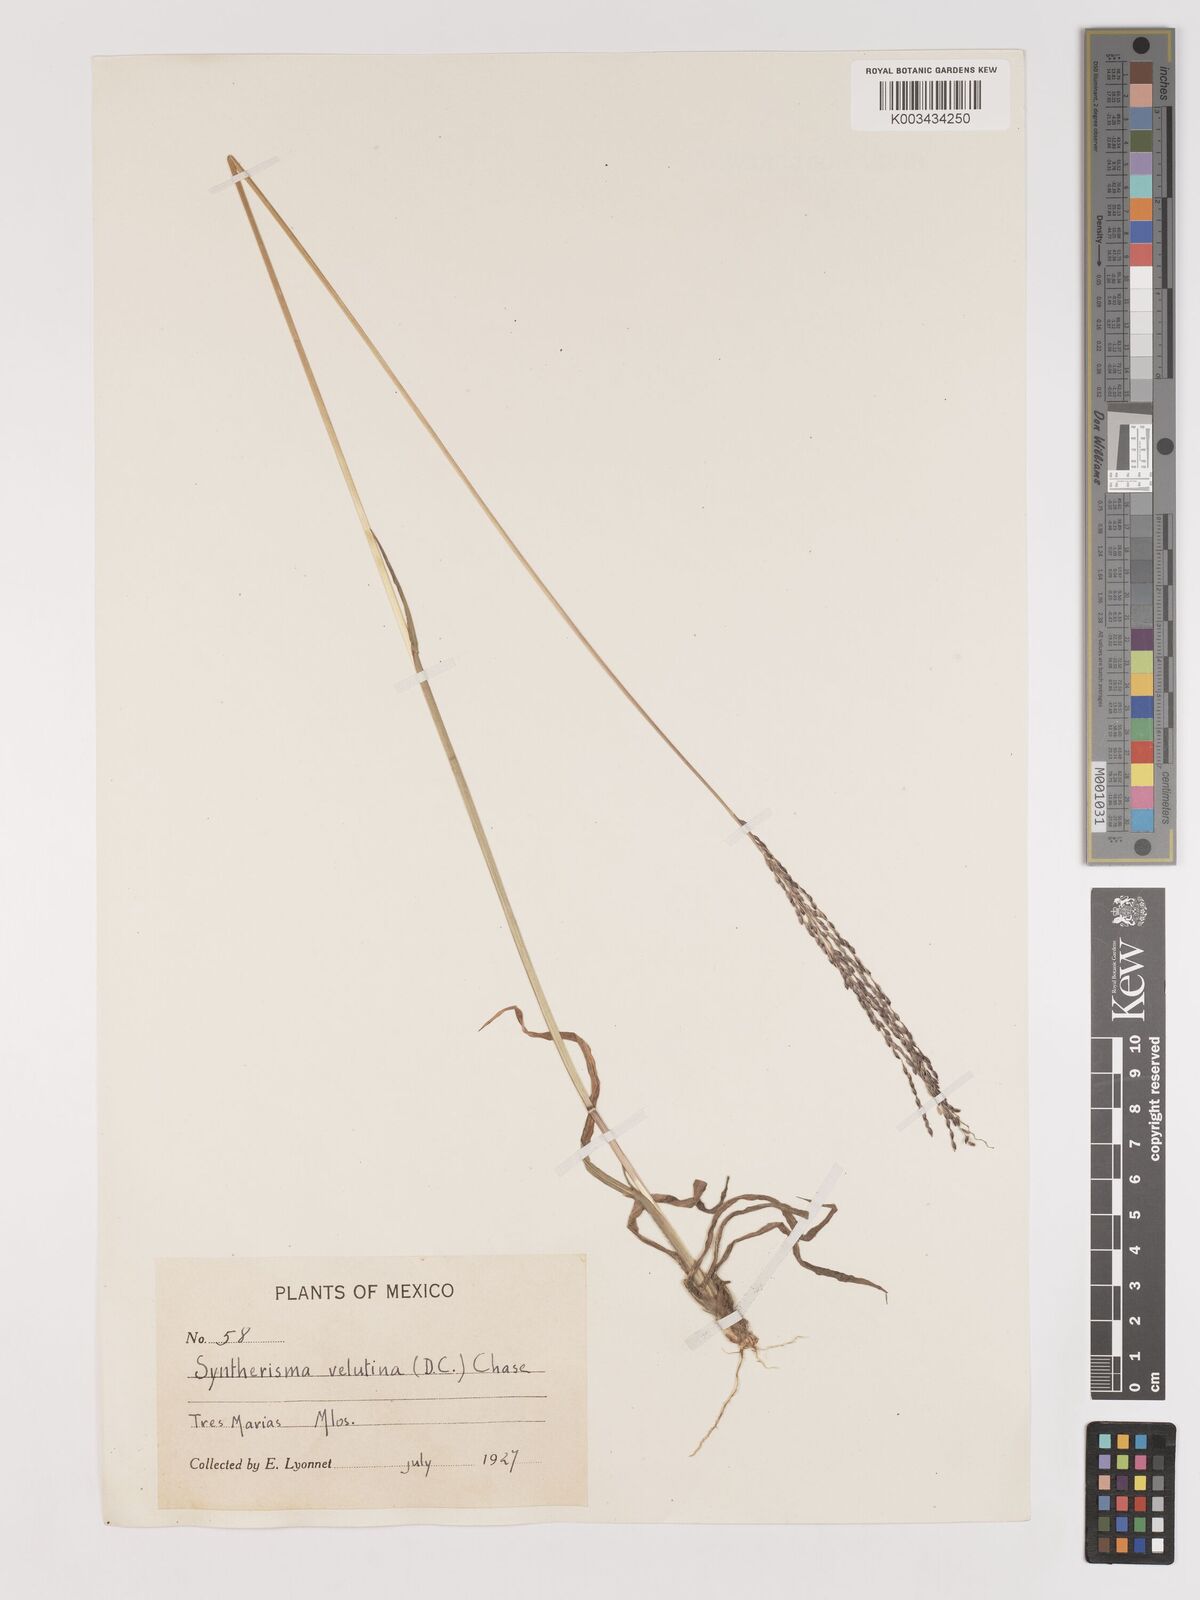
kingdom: Plantae
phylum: Tracheophyta
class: Liliopsida
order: Poales
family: Poaceae
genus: Digitaria
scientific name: Digitaria leucites
